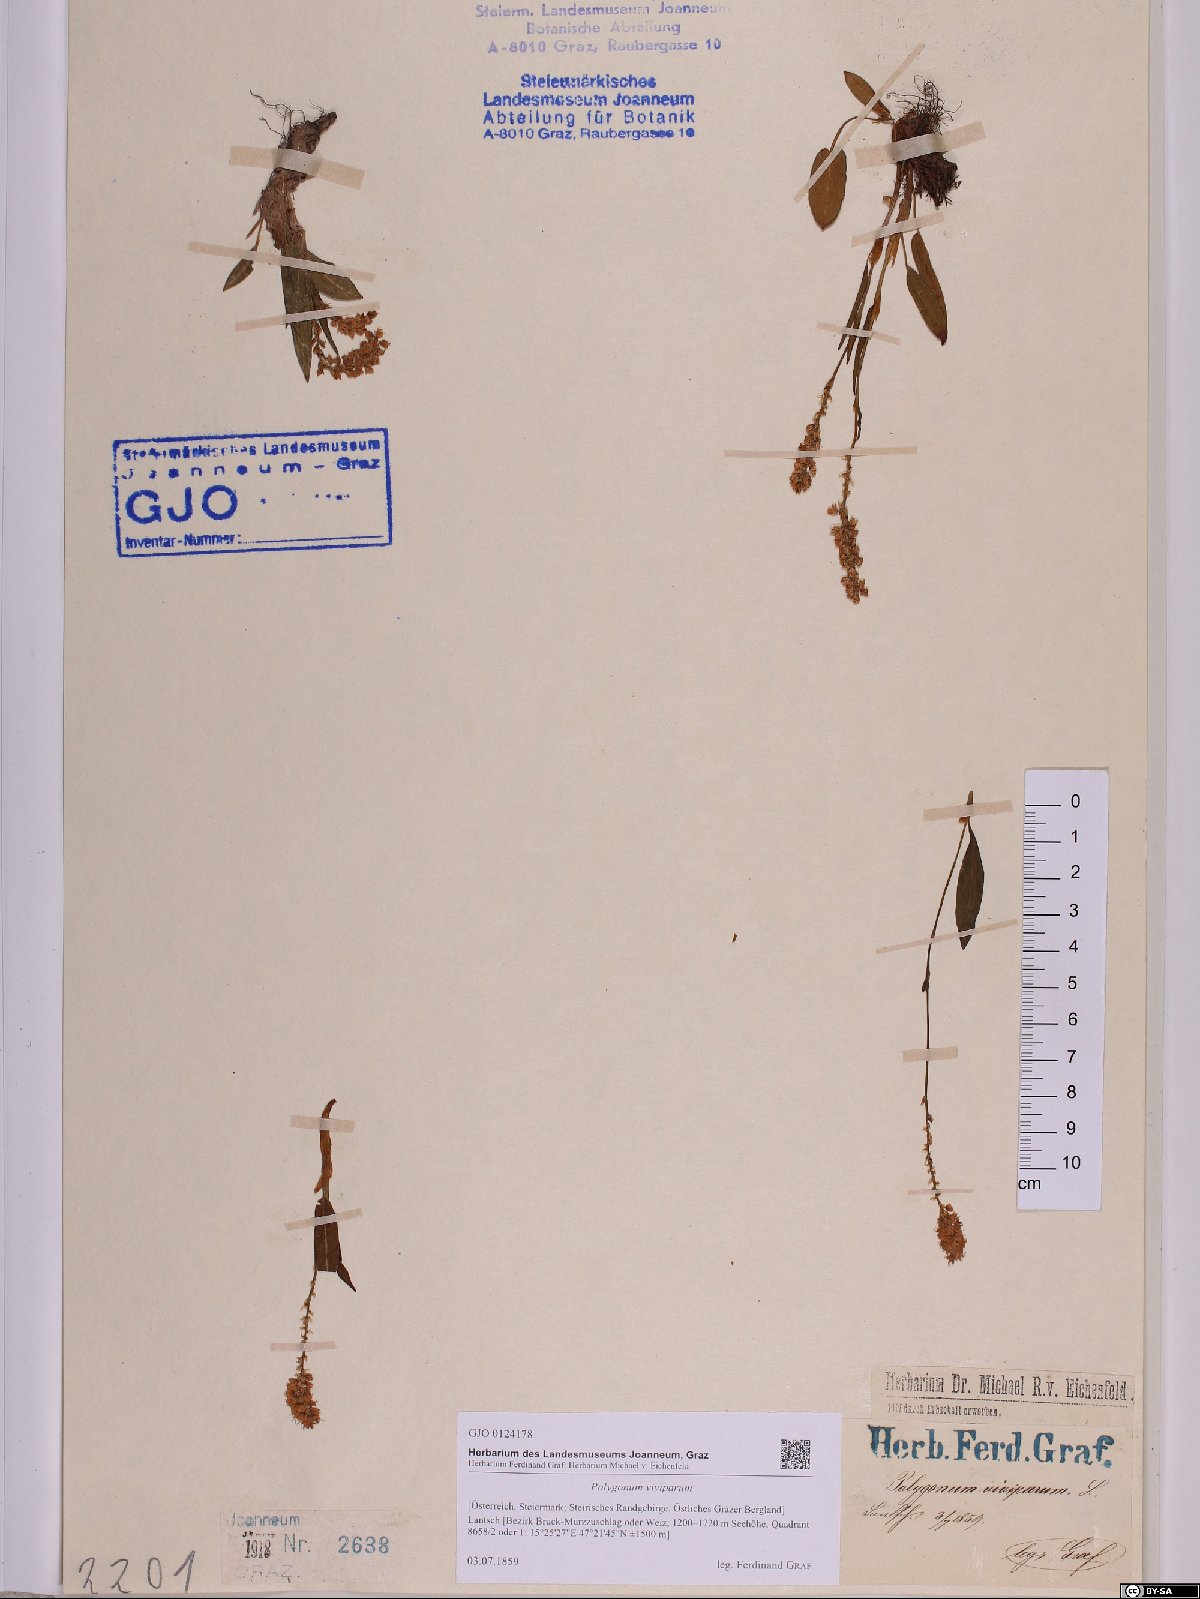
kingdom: Plantae
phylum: Tracheophyta
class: Magnoliopsida
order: Caryophyllales
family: Polygonaceae
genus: Bistorta
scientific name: Bistorta vivipara
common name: Alpine bistort
